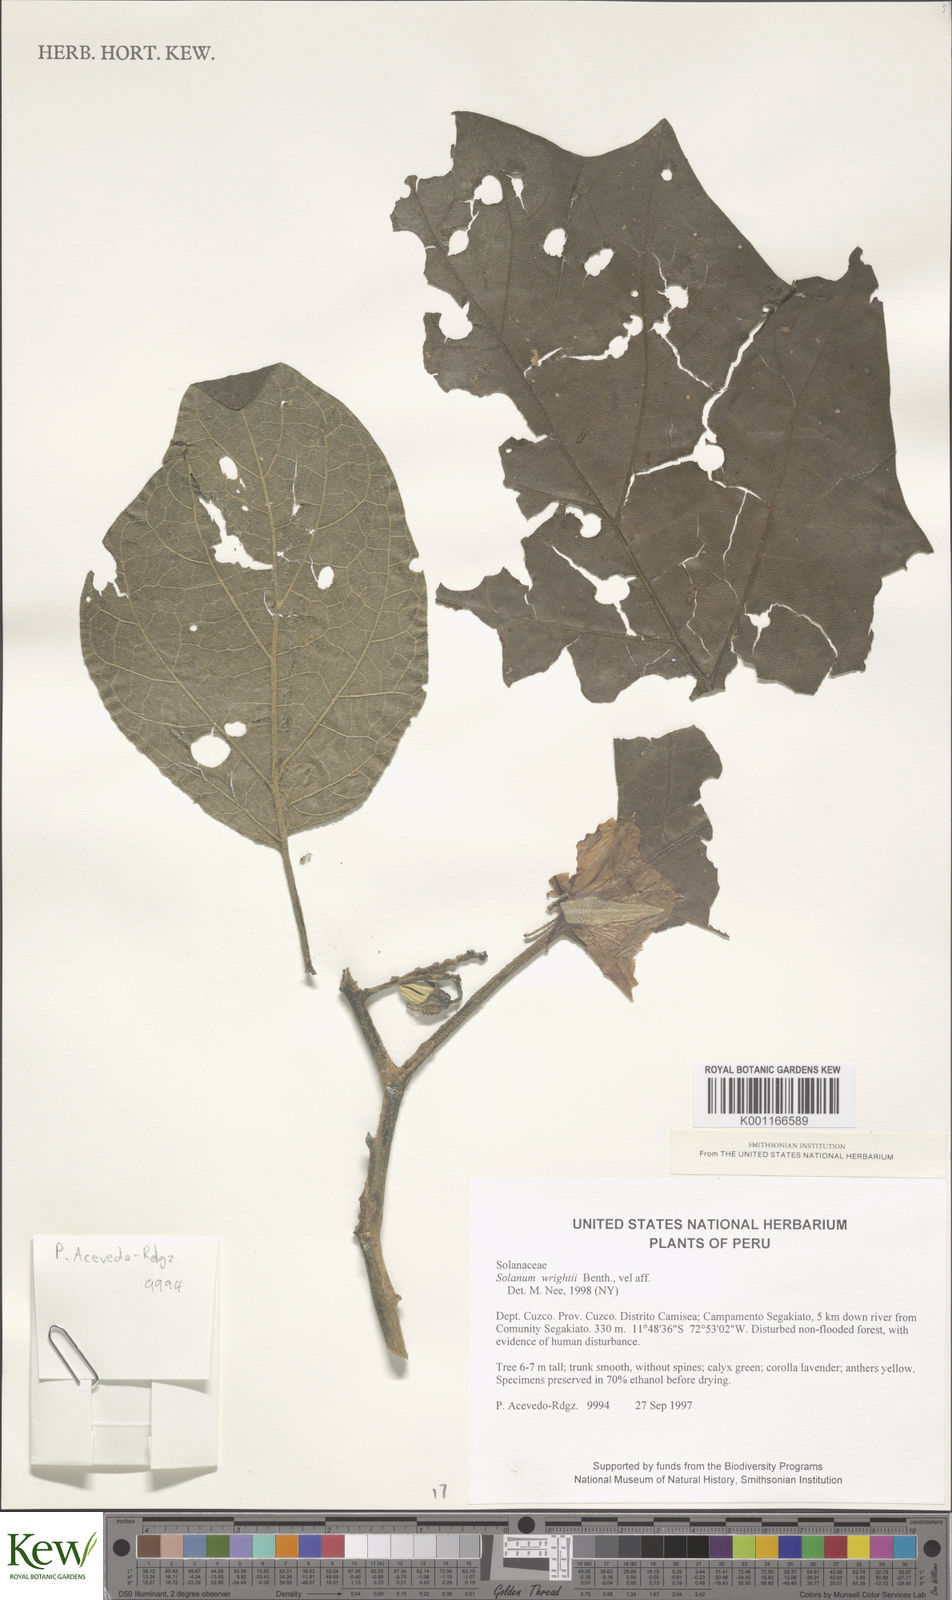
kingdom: Plantae
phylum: Tracheophyta
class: Magnoliopsida
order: Solanales
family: Solanaceae
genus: Solanum
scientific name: Solanum wrightii
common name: Brazilian potato-tree
